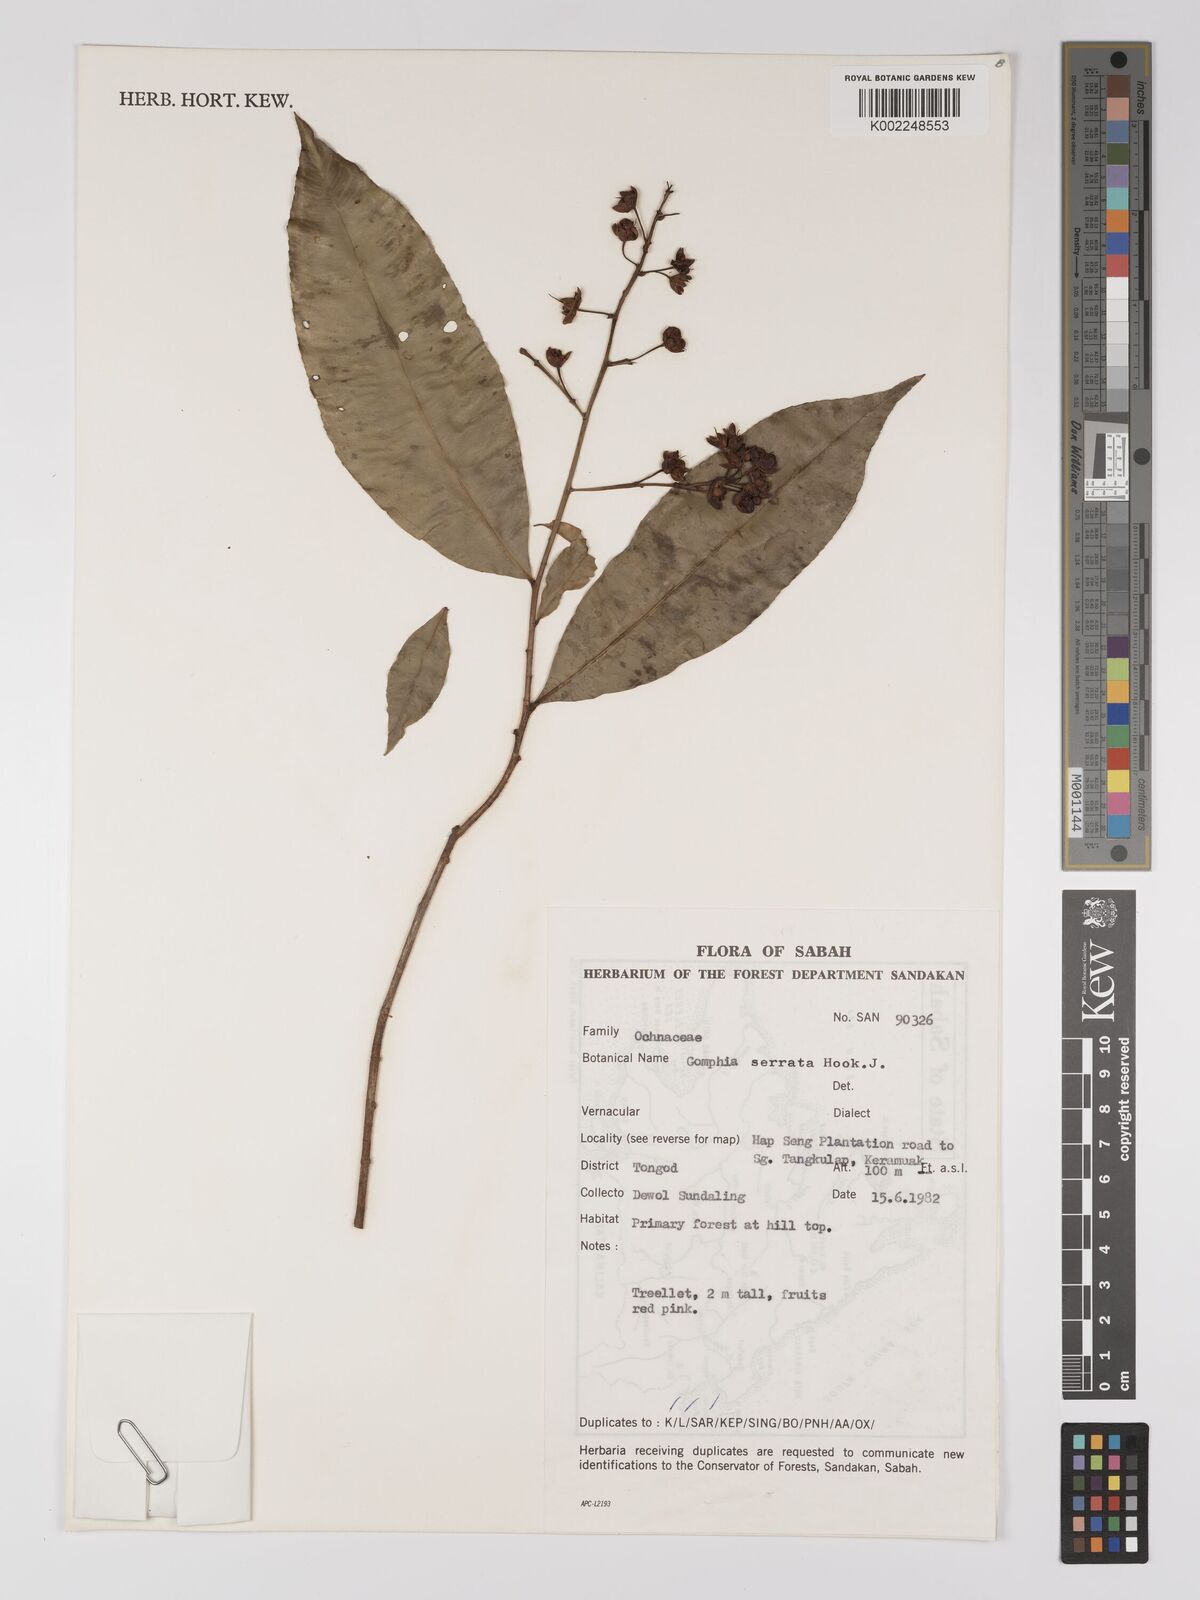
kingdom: Plantae
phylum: Tracheophyta
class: Magnoliopsida
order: Malpighiales
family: Ochnaceae
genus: Gomphia
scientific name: Gomphia serrata
